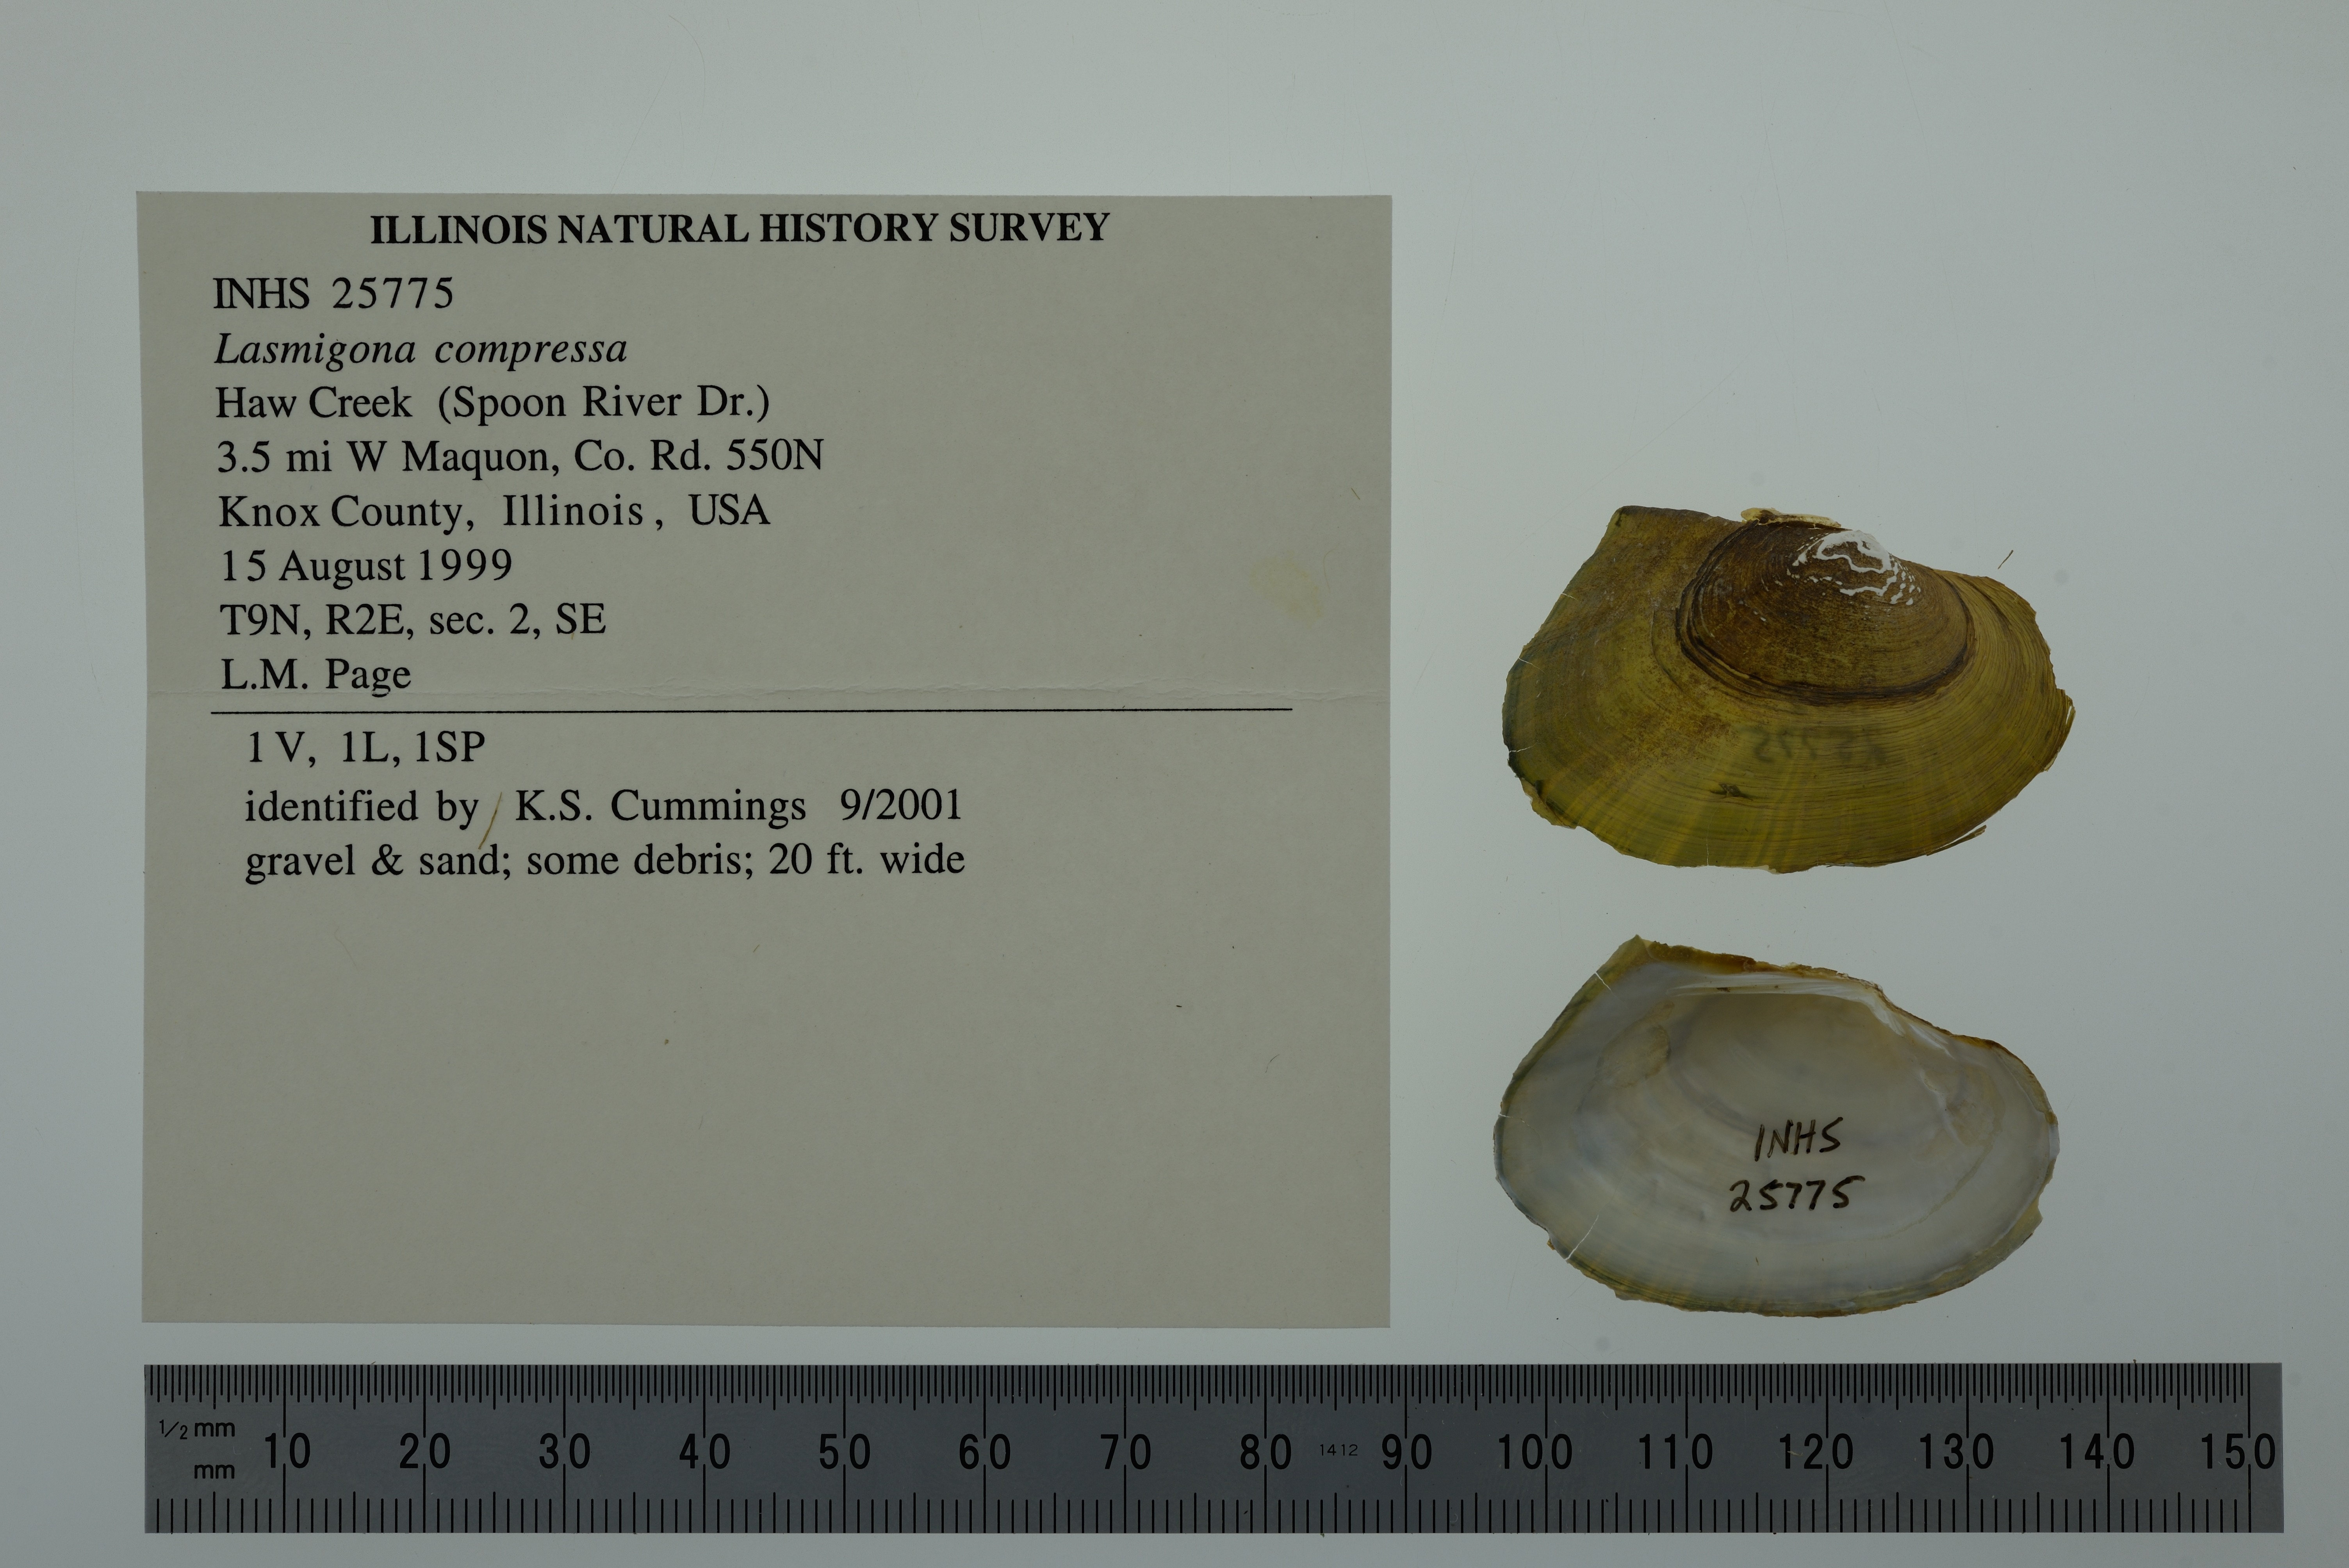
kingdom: Animalia
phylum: Mollusca
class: Bivalvia
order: Unionida
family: Unionidae
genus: Lasmigona
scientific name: Lasmigona compressa
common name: Creek heelsplitter
